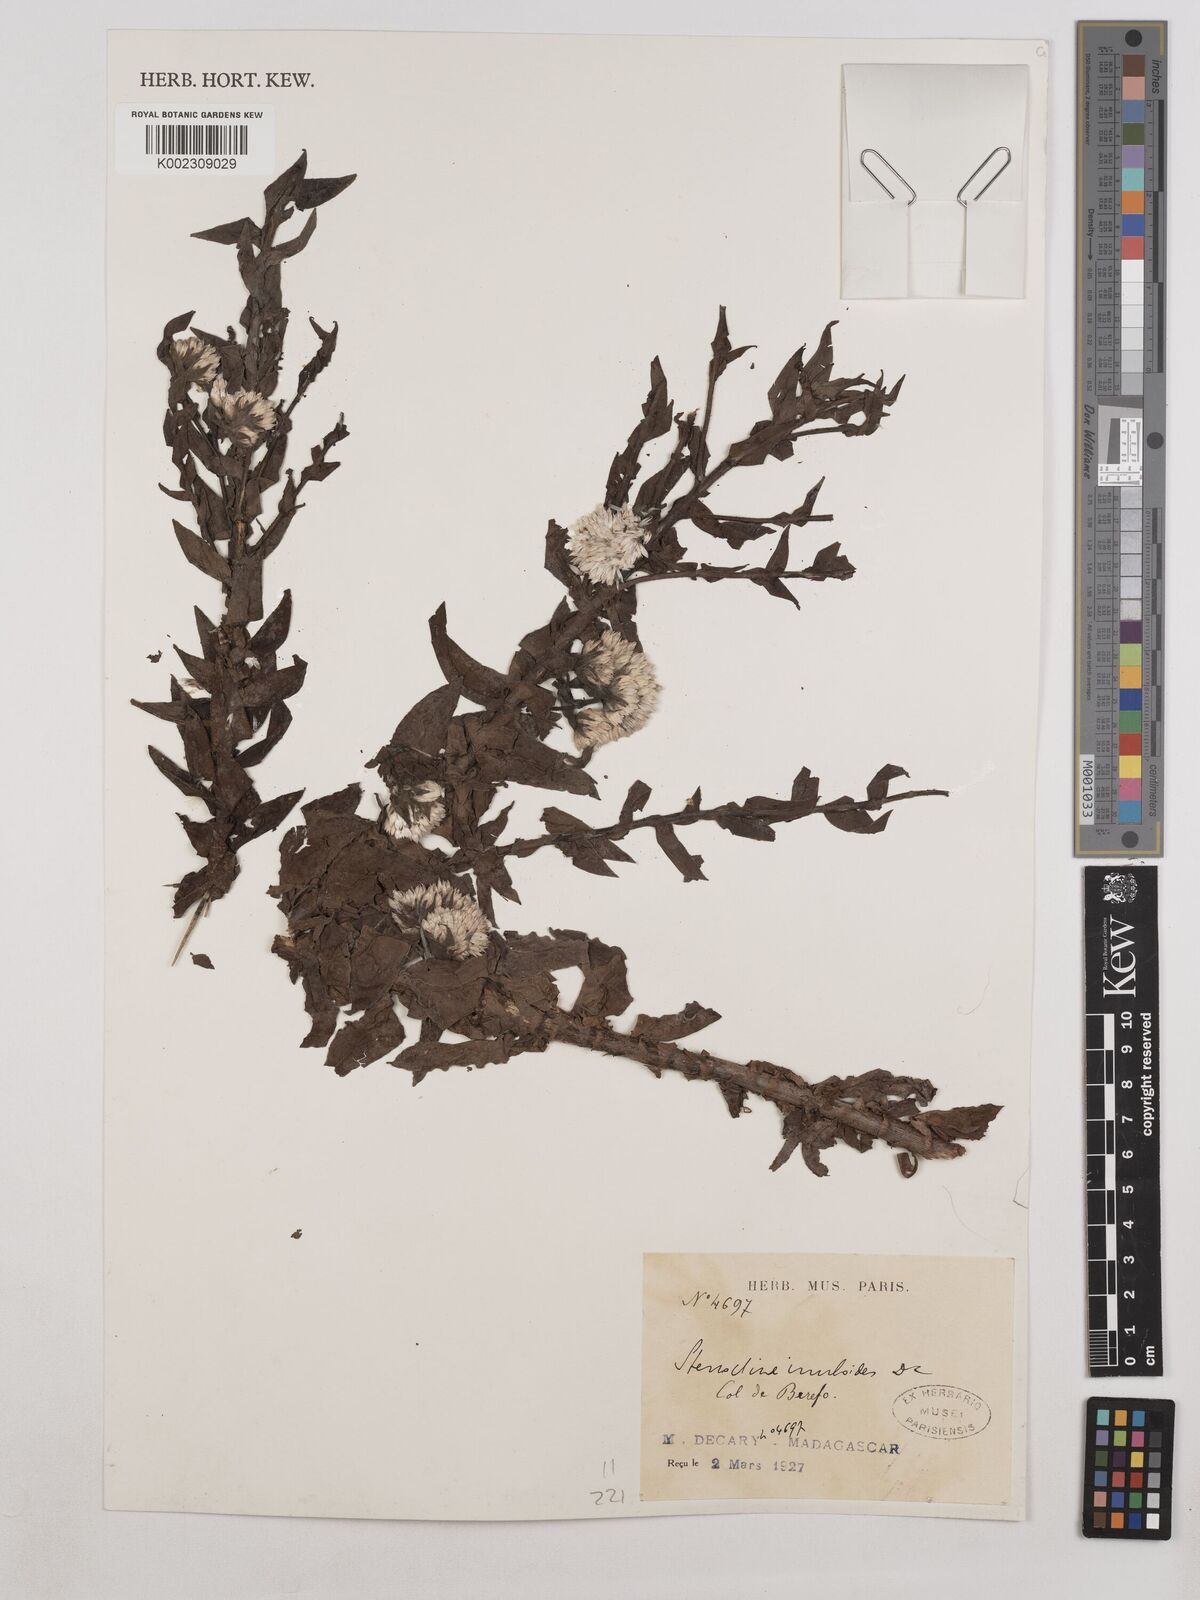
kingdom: Plantae
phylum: Tracheophyta
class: Magnoliopsida
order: Asterales
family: Asteraceae
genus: Stenocline
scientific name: Stenocline inuloides
